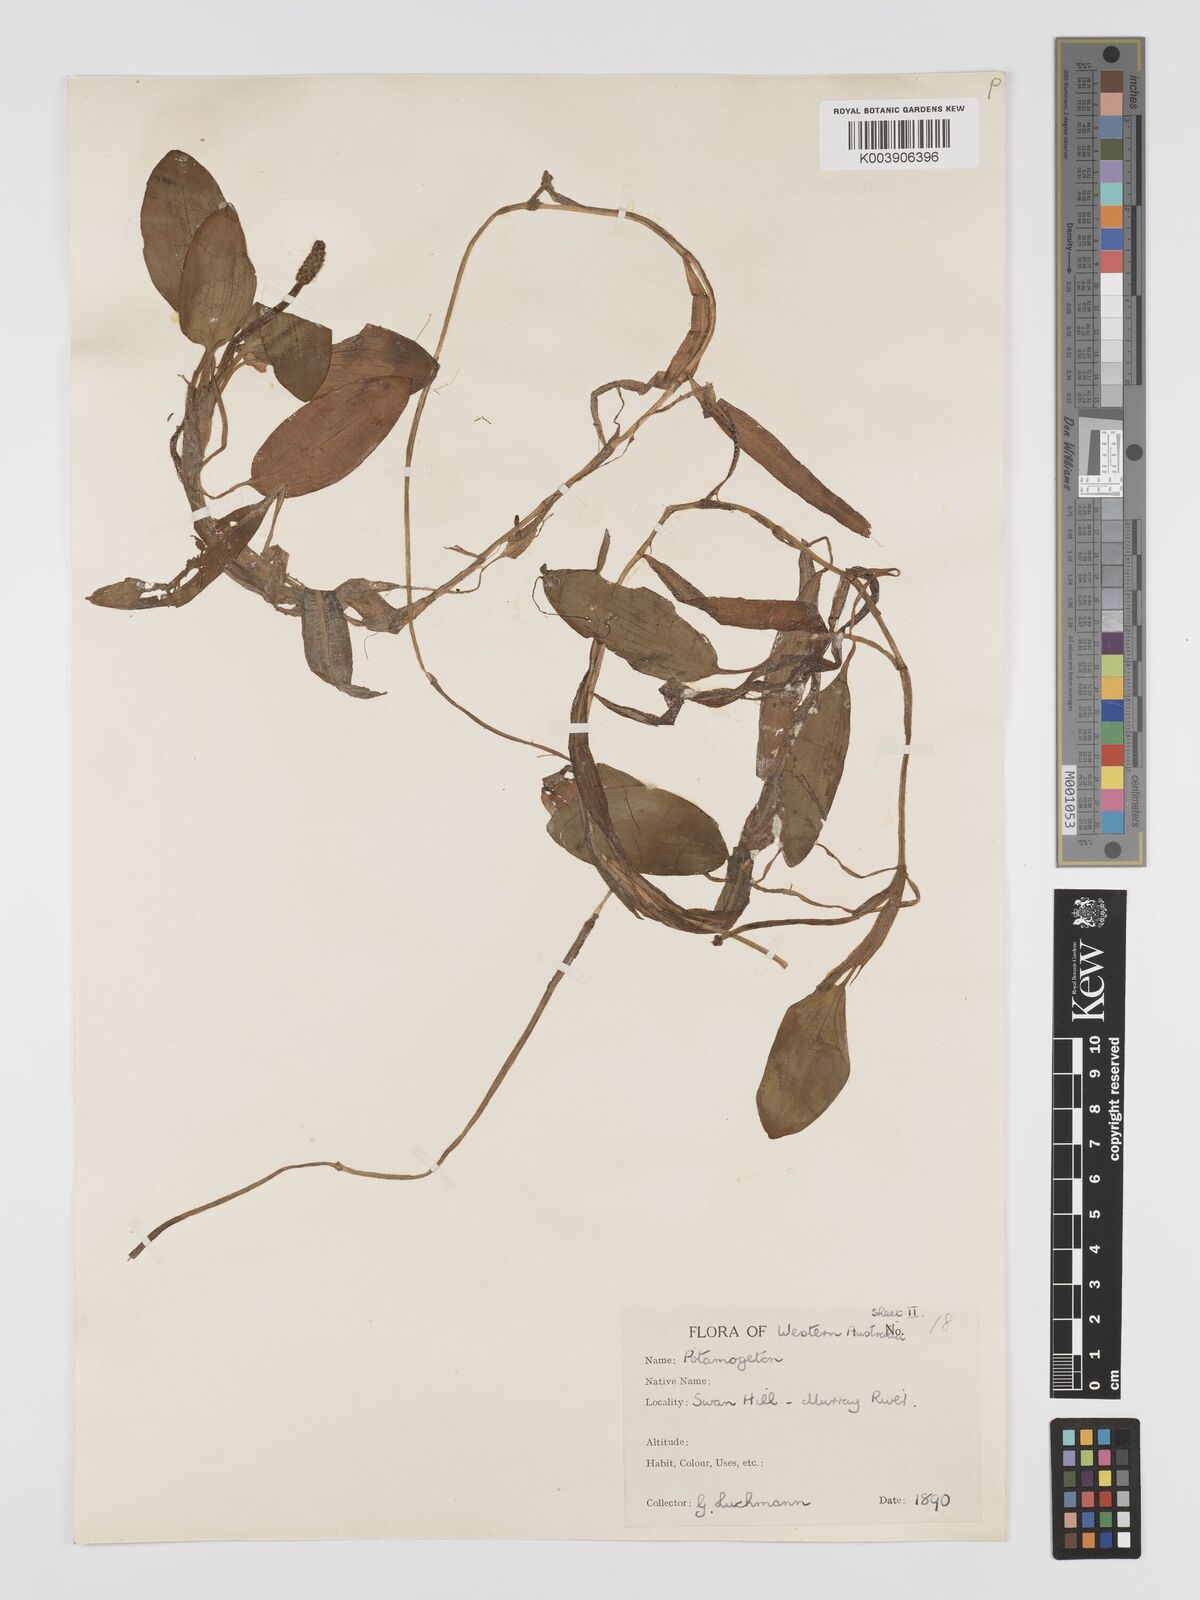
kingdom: Plantae
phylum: Tracheophyta
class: Liliopsida
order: Alismatales
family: Potamogetonaceae
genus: Potamogeton
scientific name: Potamogeton tricarinatus
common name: Pondweed
